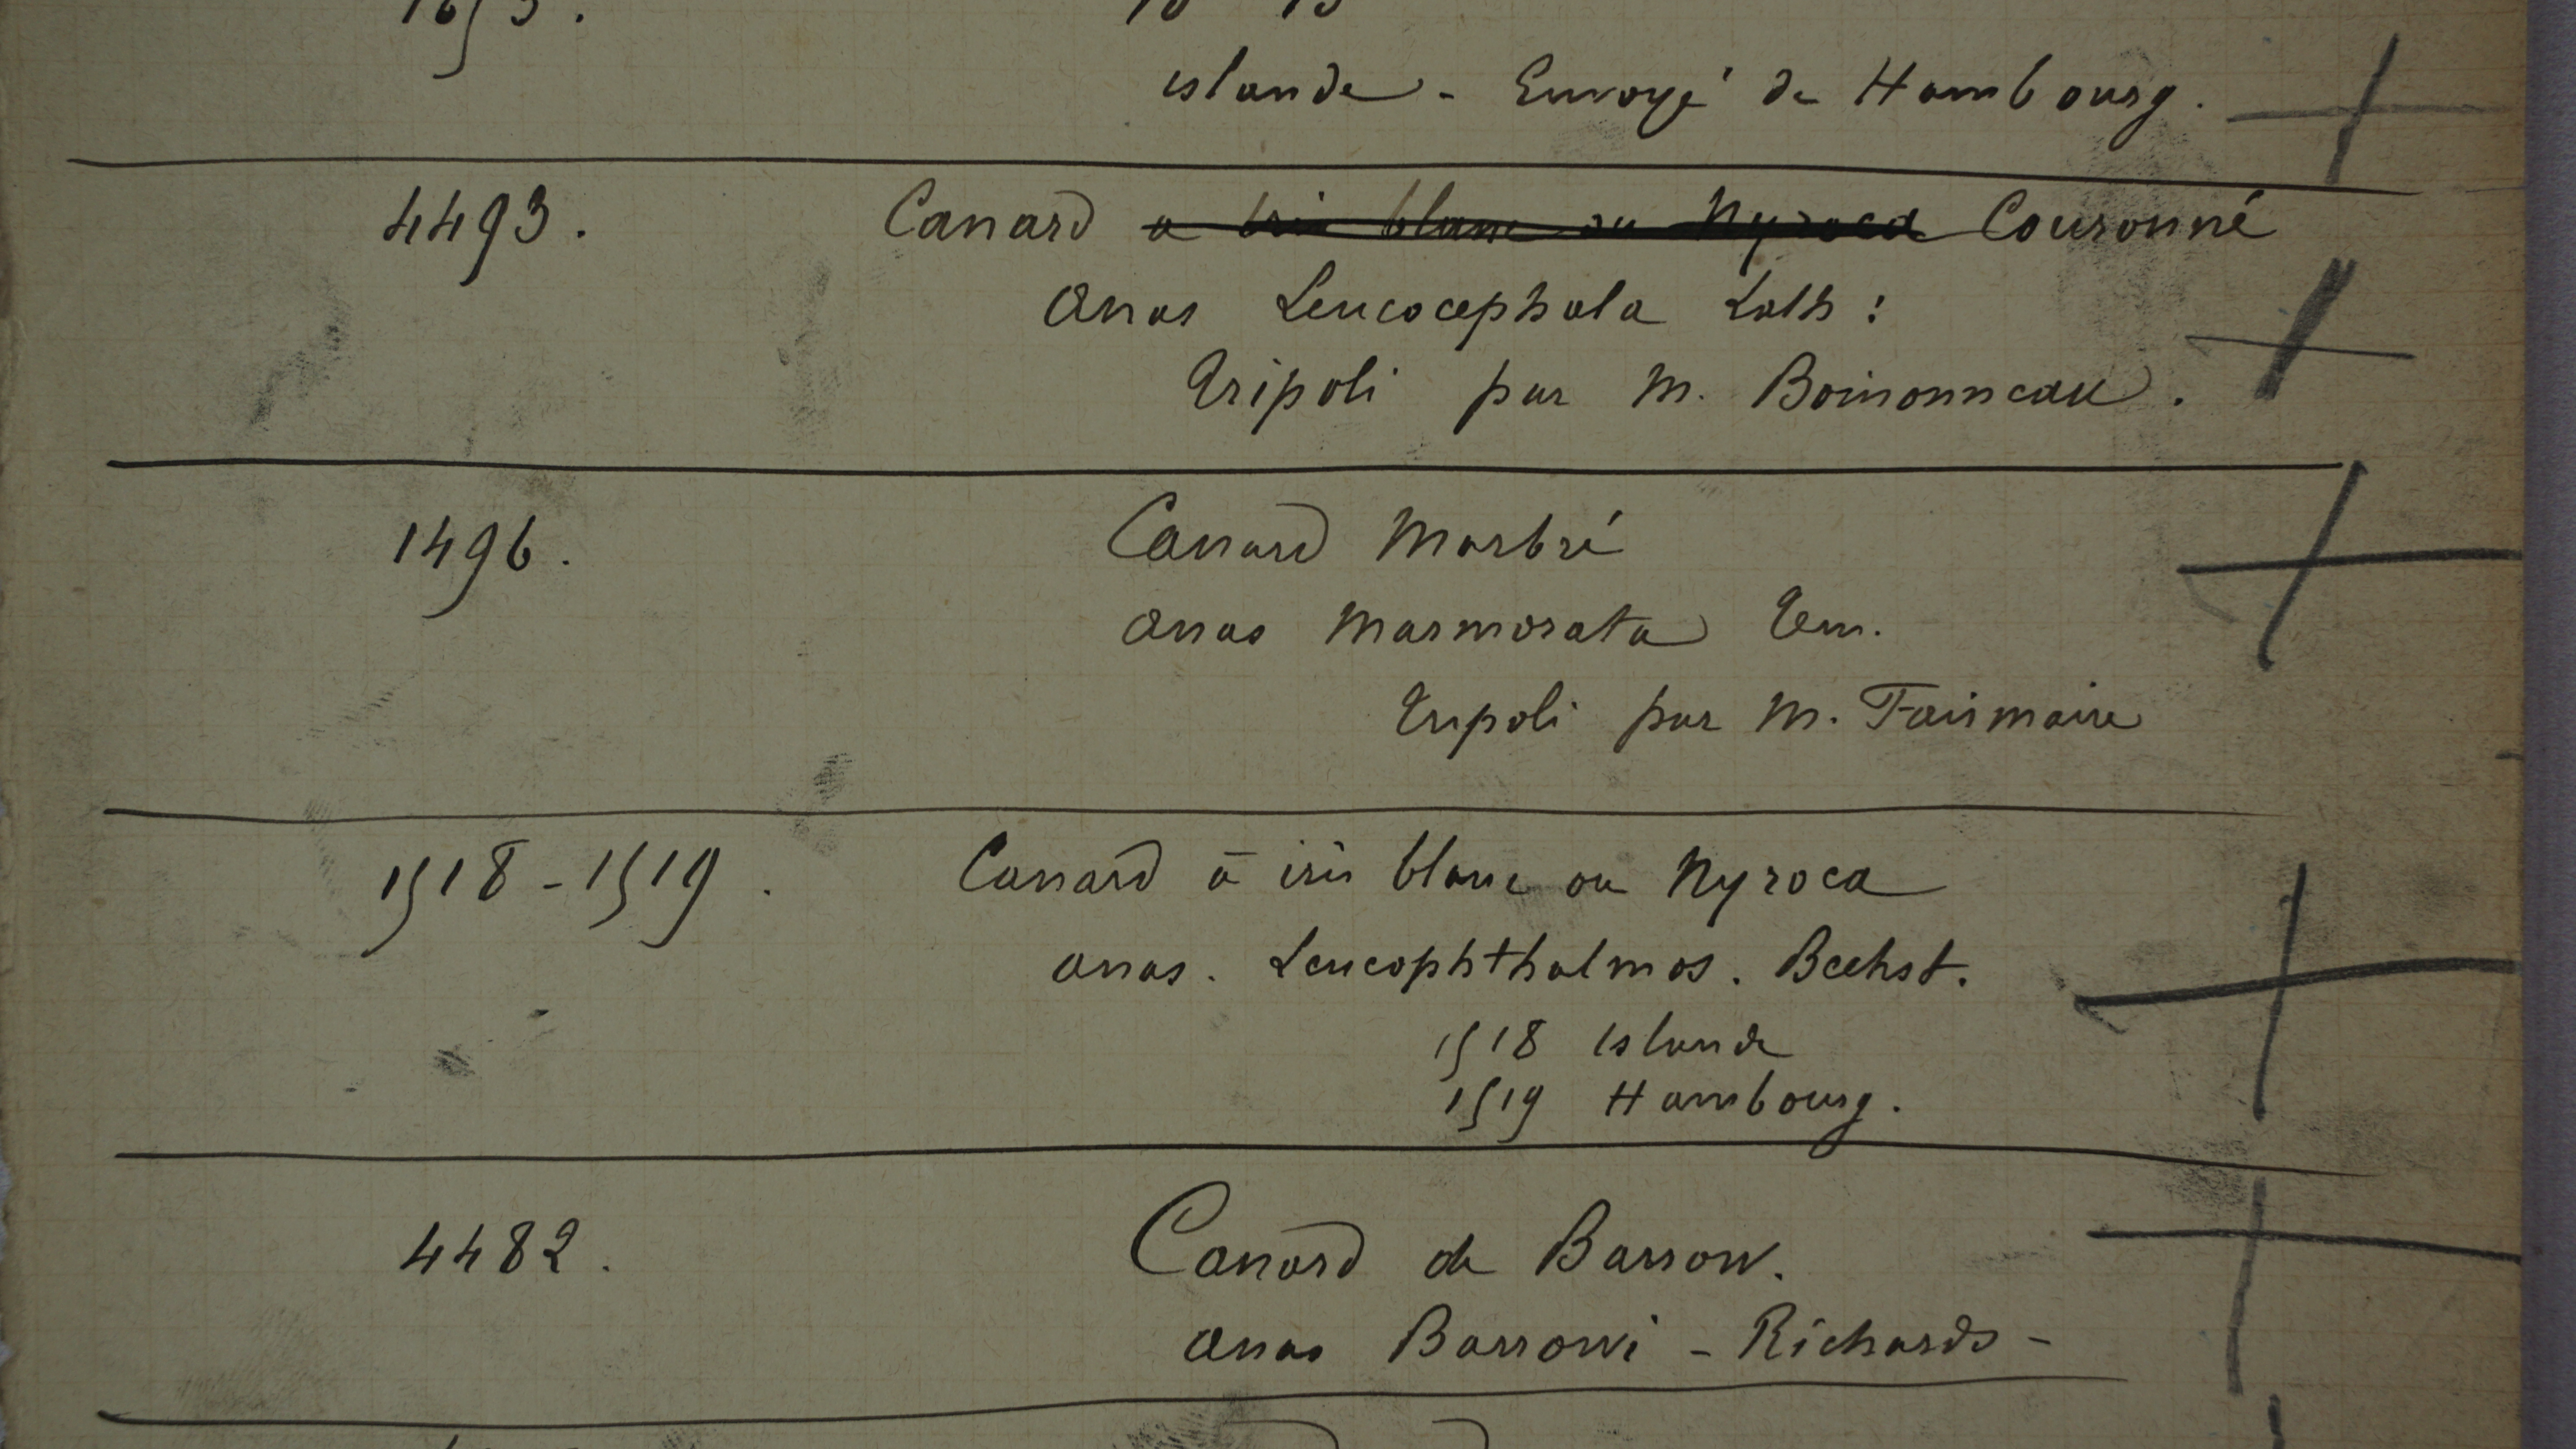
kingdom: Animalia
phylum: Chordata
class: Aves
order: Anseriformes
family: Anatidae
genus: Marmaronetta
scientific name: Marmaronetta angustirostris
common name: Marbled duck
